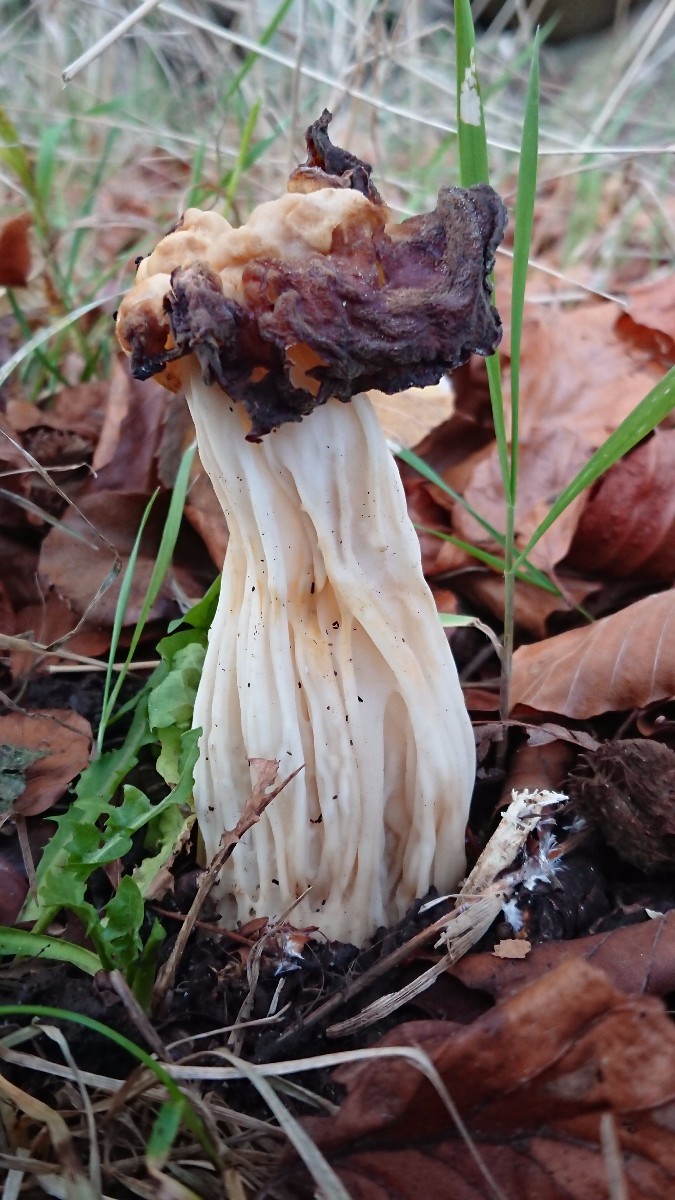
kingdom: Fungi
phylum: Ascomycota
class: Pezizomycetes
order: Pezizales
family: Helvellaceae
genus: Helvella
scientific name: Helvella crispa
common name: kruset foldhat
